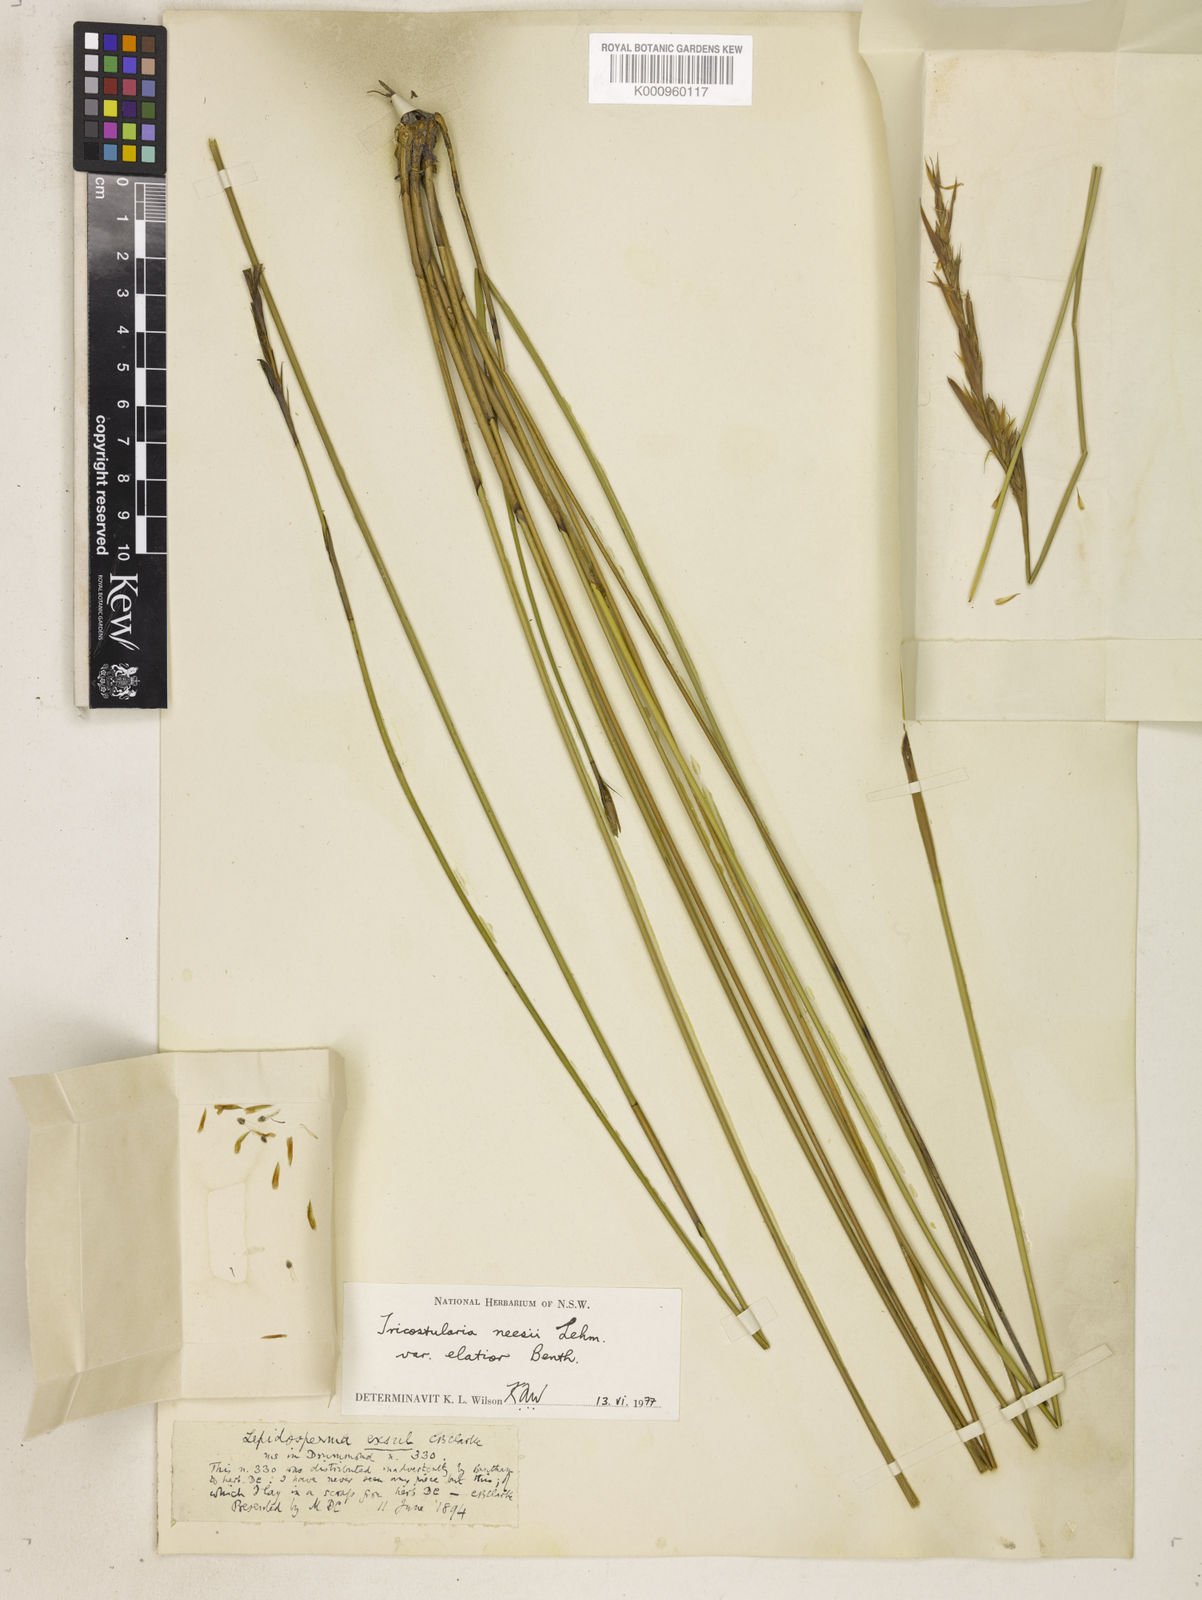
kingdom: Plantae
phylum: Tracheophyta
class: Liliopsida
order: Poales
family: Cyperaceae
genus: Tricostularia
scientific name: Tricostularia neesii
